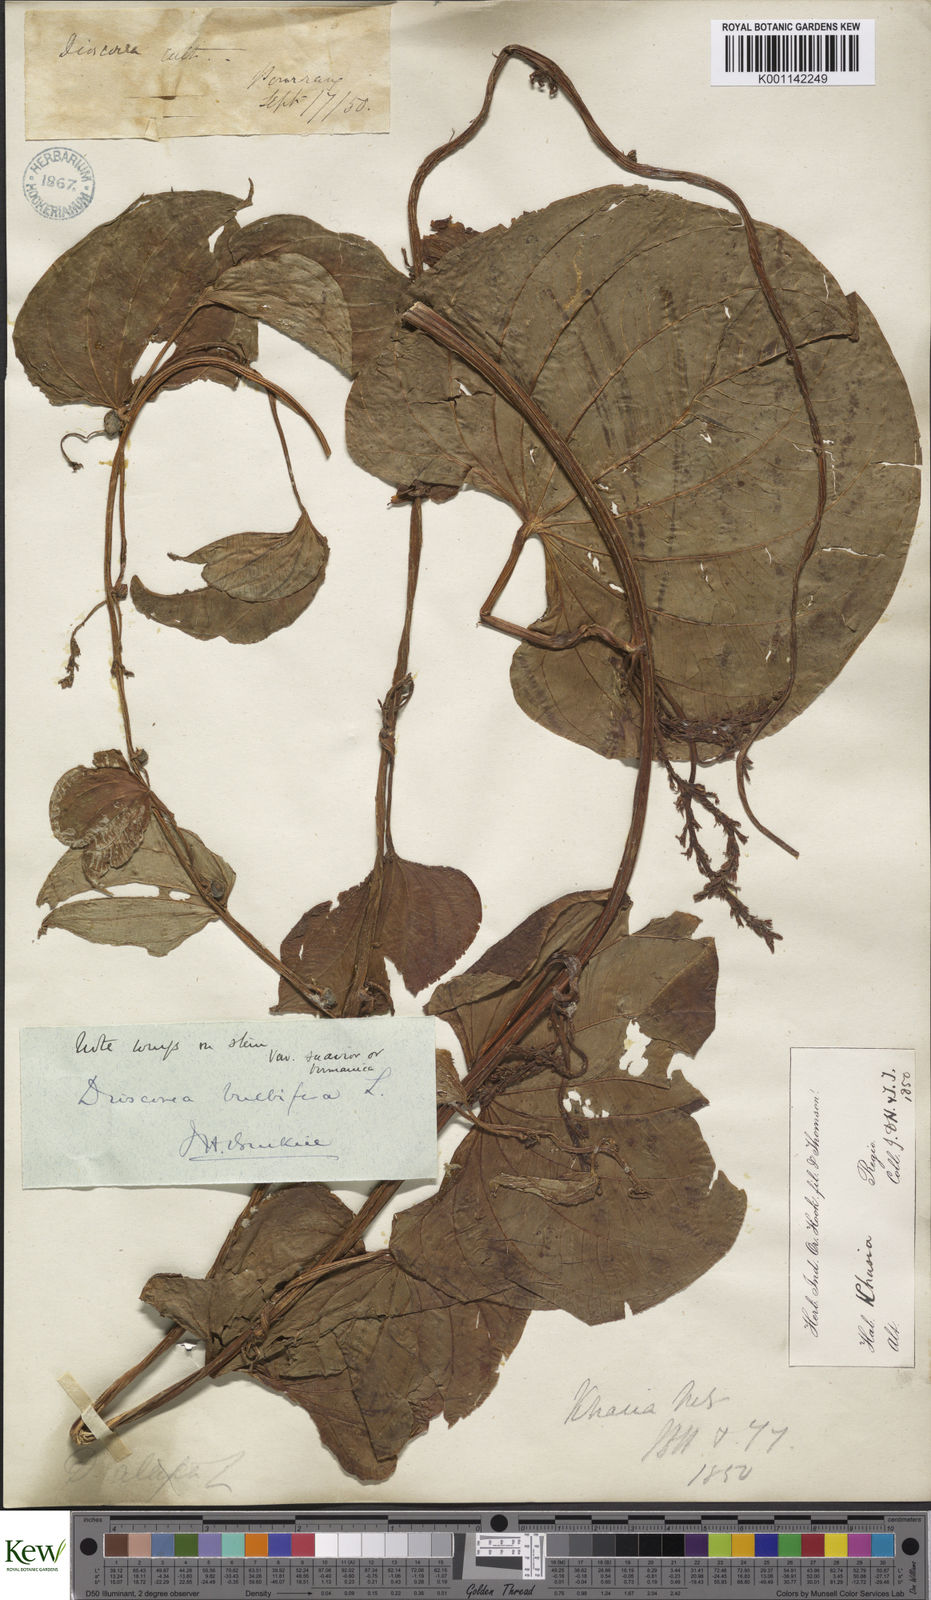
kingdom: Plantae
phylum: Tracheophyta
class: Liliopsida
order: Dioscoreales
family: Dioscoreaceae
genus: Dioscorea
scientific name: Dioscorea bulbifera
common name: Air yam
